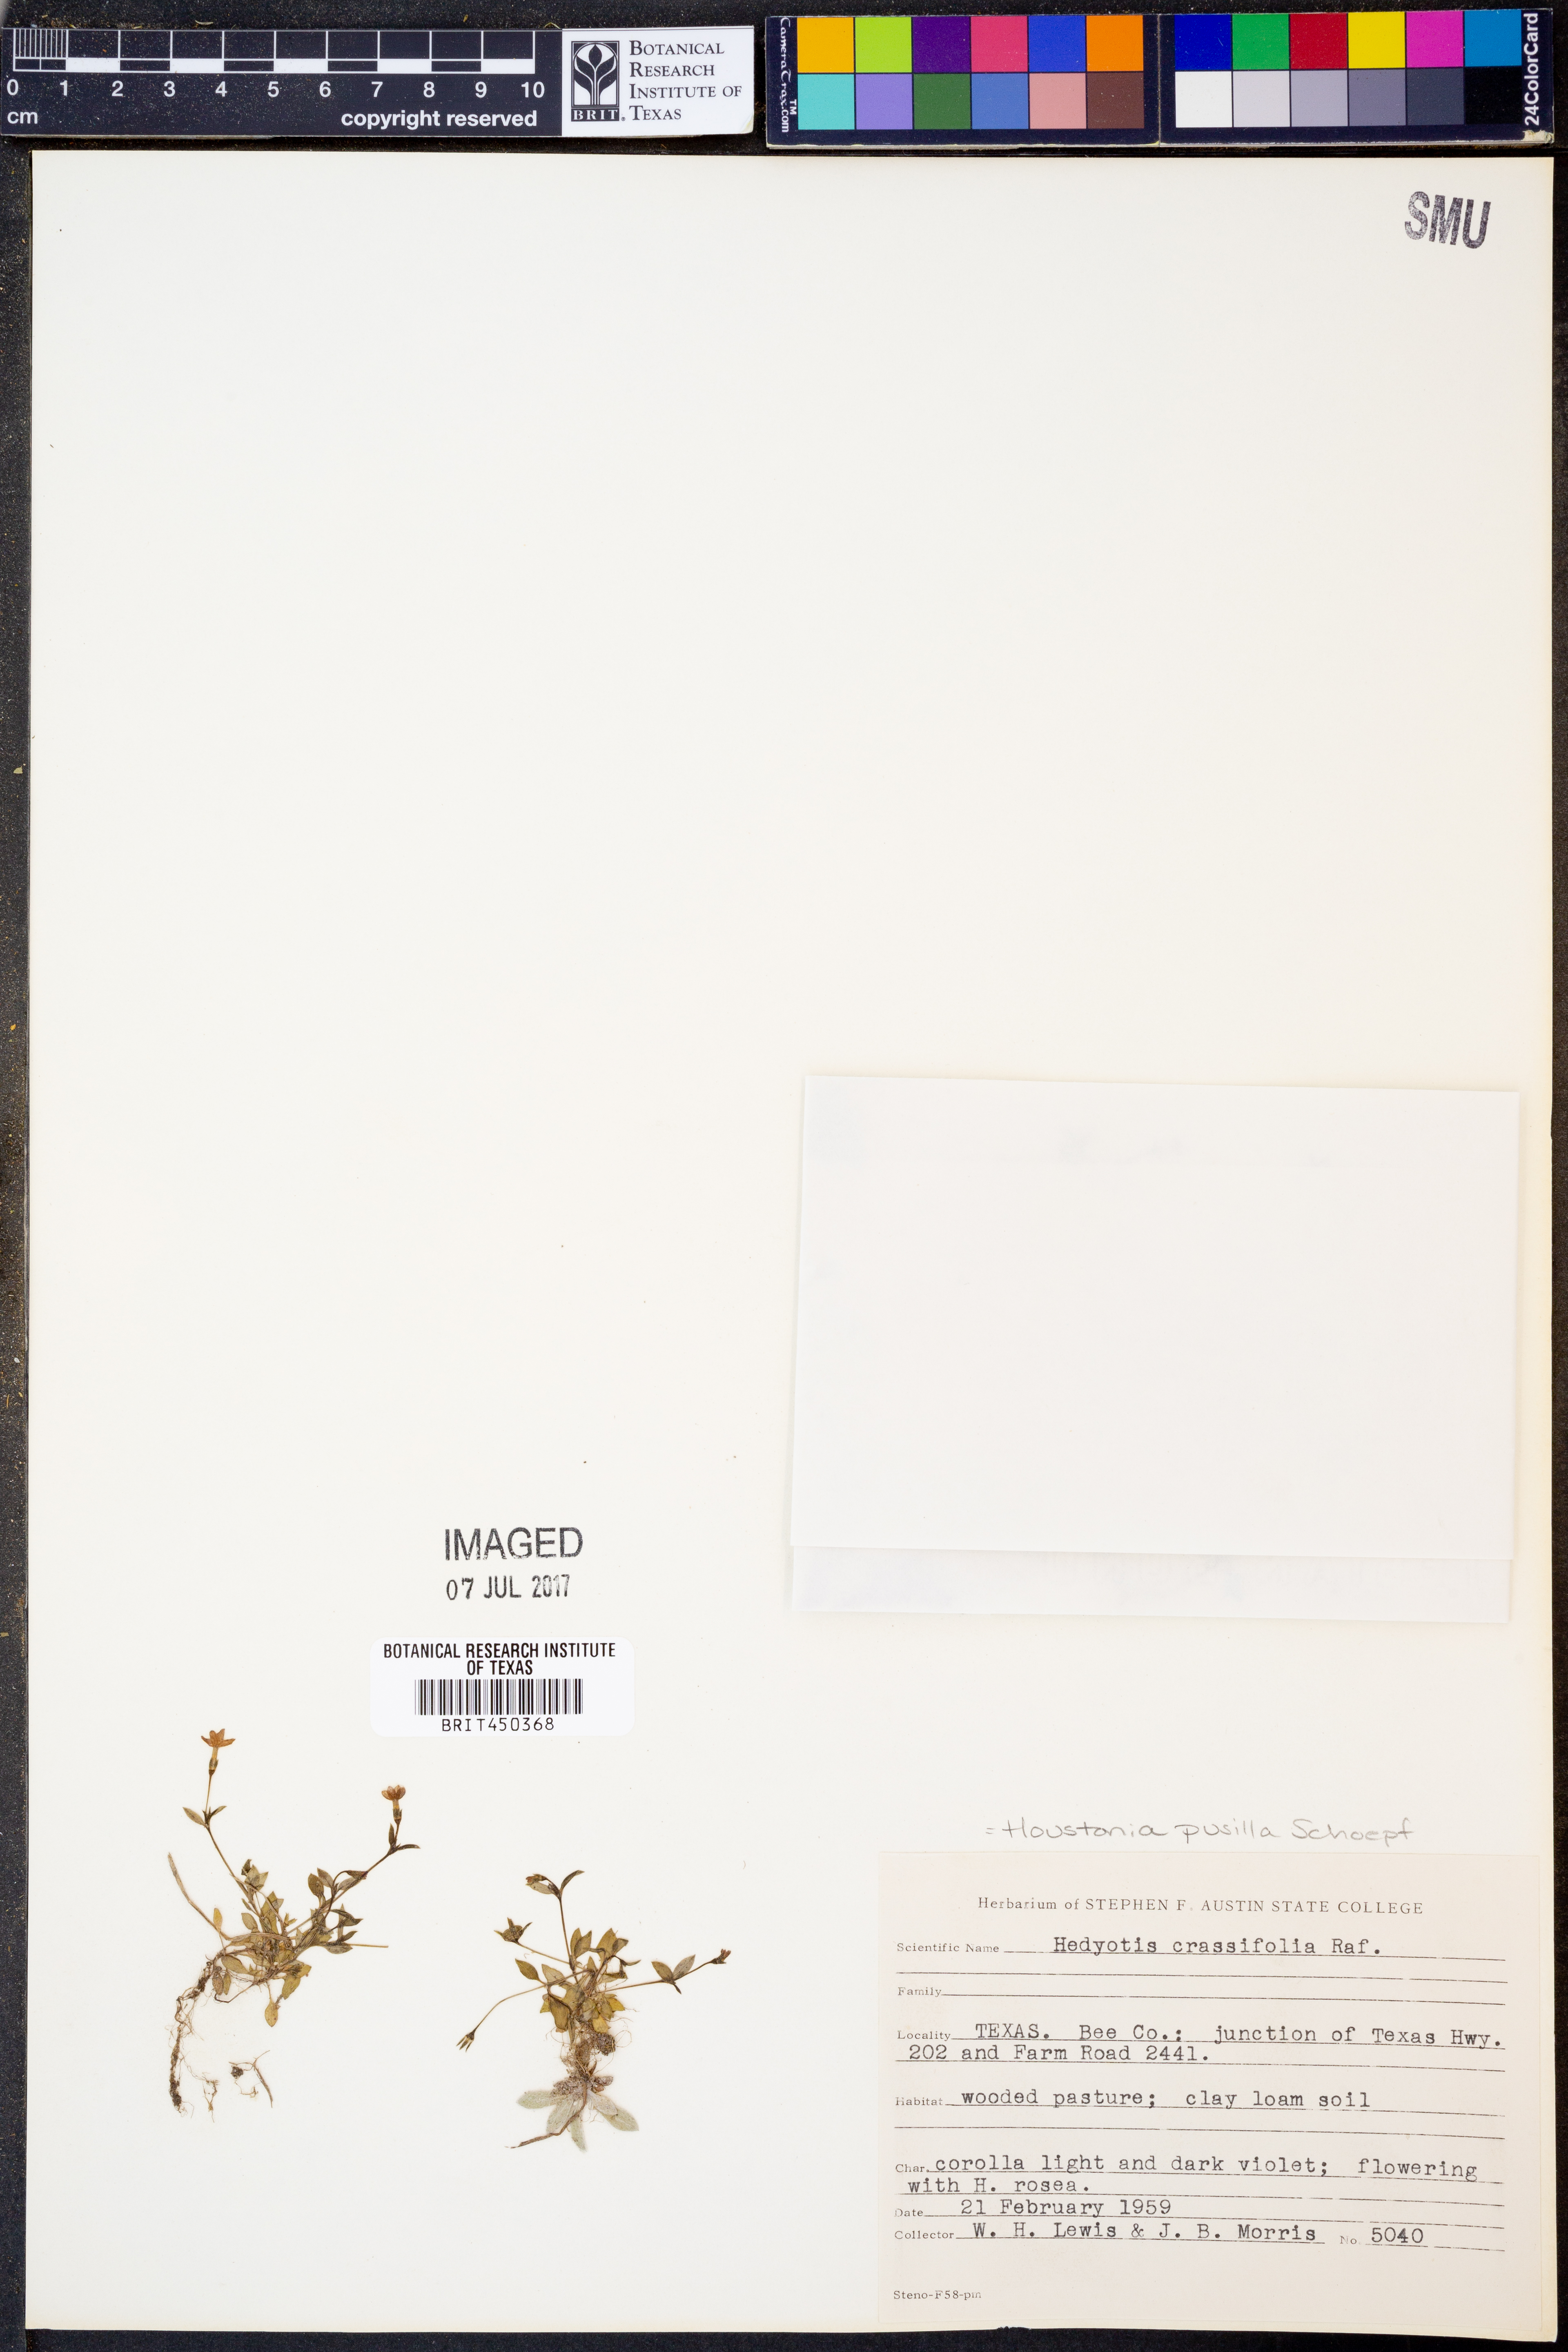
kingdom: Plantae
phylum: Tracheophyta
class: Magnoliopsida
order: Gentianales
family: Rubiaceae
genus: Houstonia
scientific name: Houstonia pusilla
